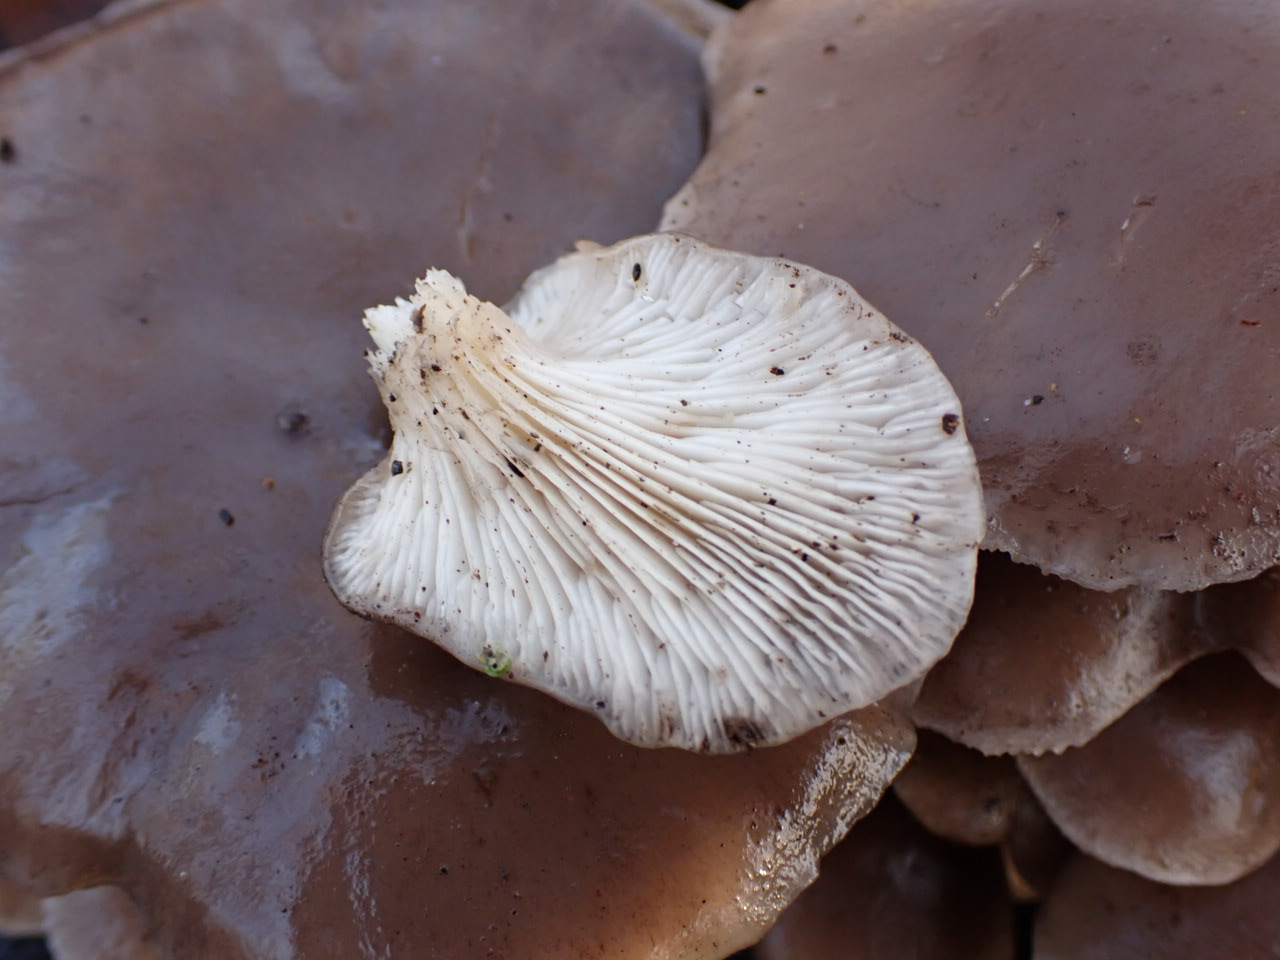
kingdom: Fungi
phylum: Basidiomycota
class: Agaricomycetes
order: Agaricales
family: Pleurotaceae
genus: Pleurotus
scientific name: Pleurotus ostreatus
